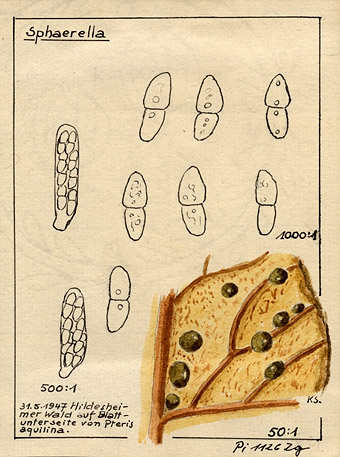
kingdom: Plantae
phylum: Tracheophyta
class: Polypodiopsida
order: Polypodiales
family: Dennstaedtiaceae
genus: Pteridium
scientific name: Pteridium aquilinum
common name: Bracken
